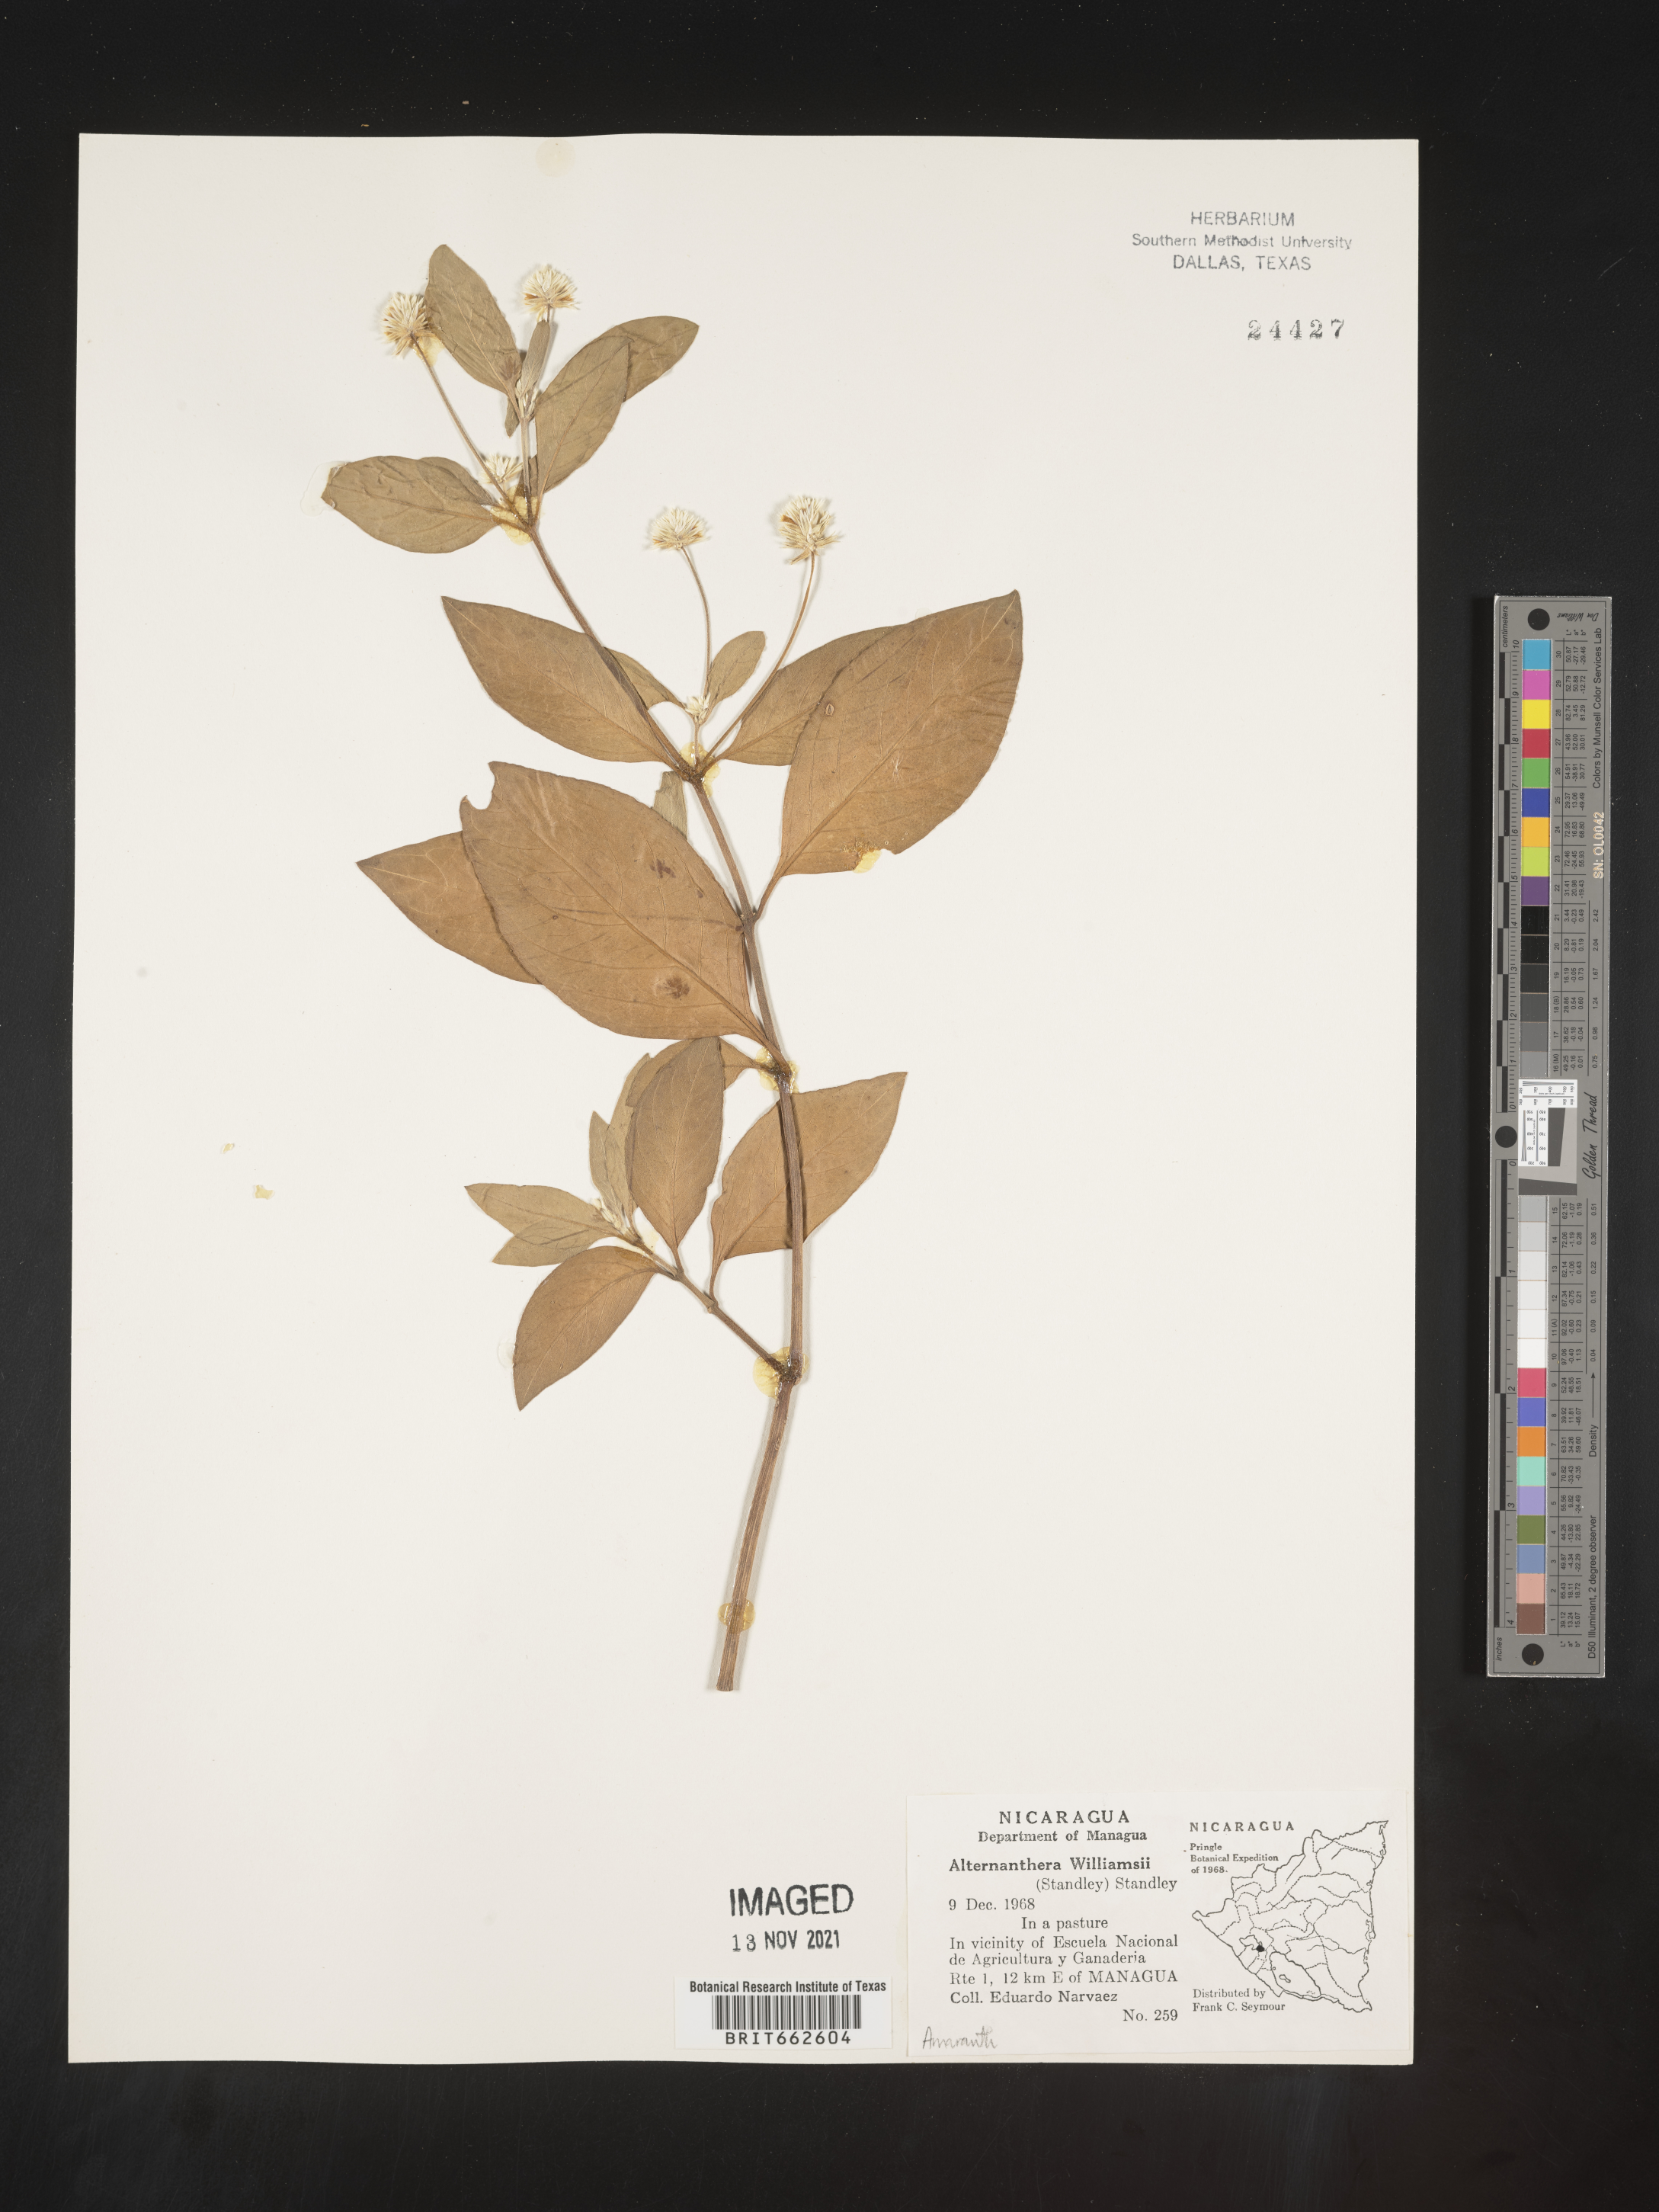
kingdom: Plantae
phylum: Tracheophyta
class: Magnoliopsida
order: Caryophyllales
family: Amaranthaceae
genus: Alternanthera
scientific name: Alternanthera
